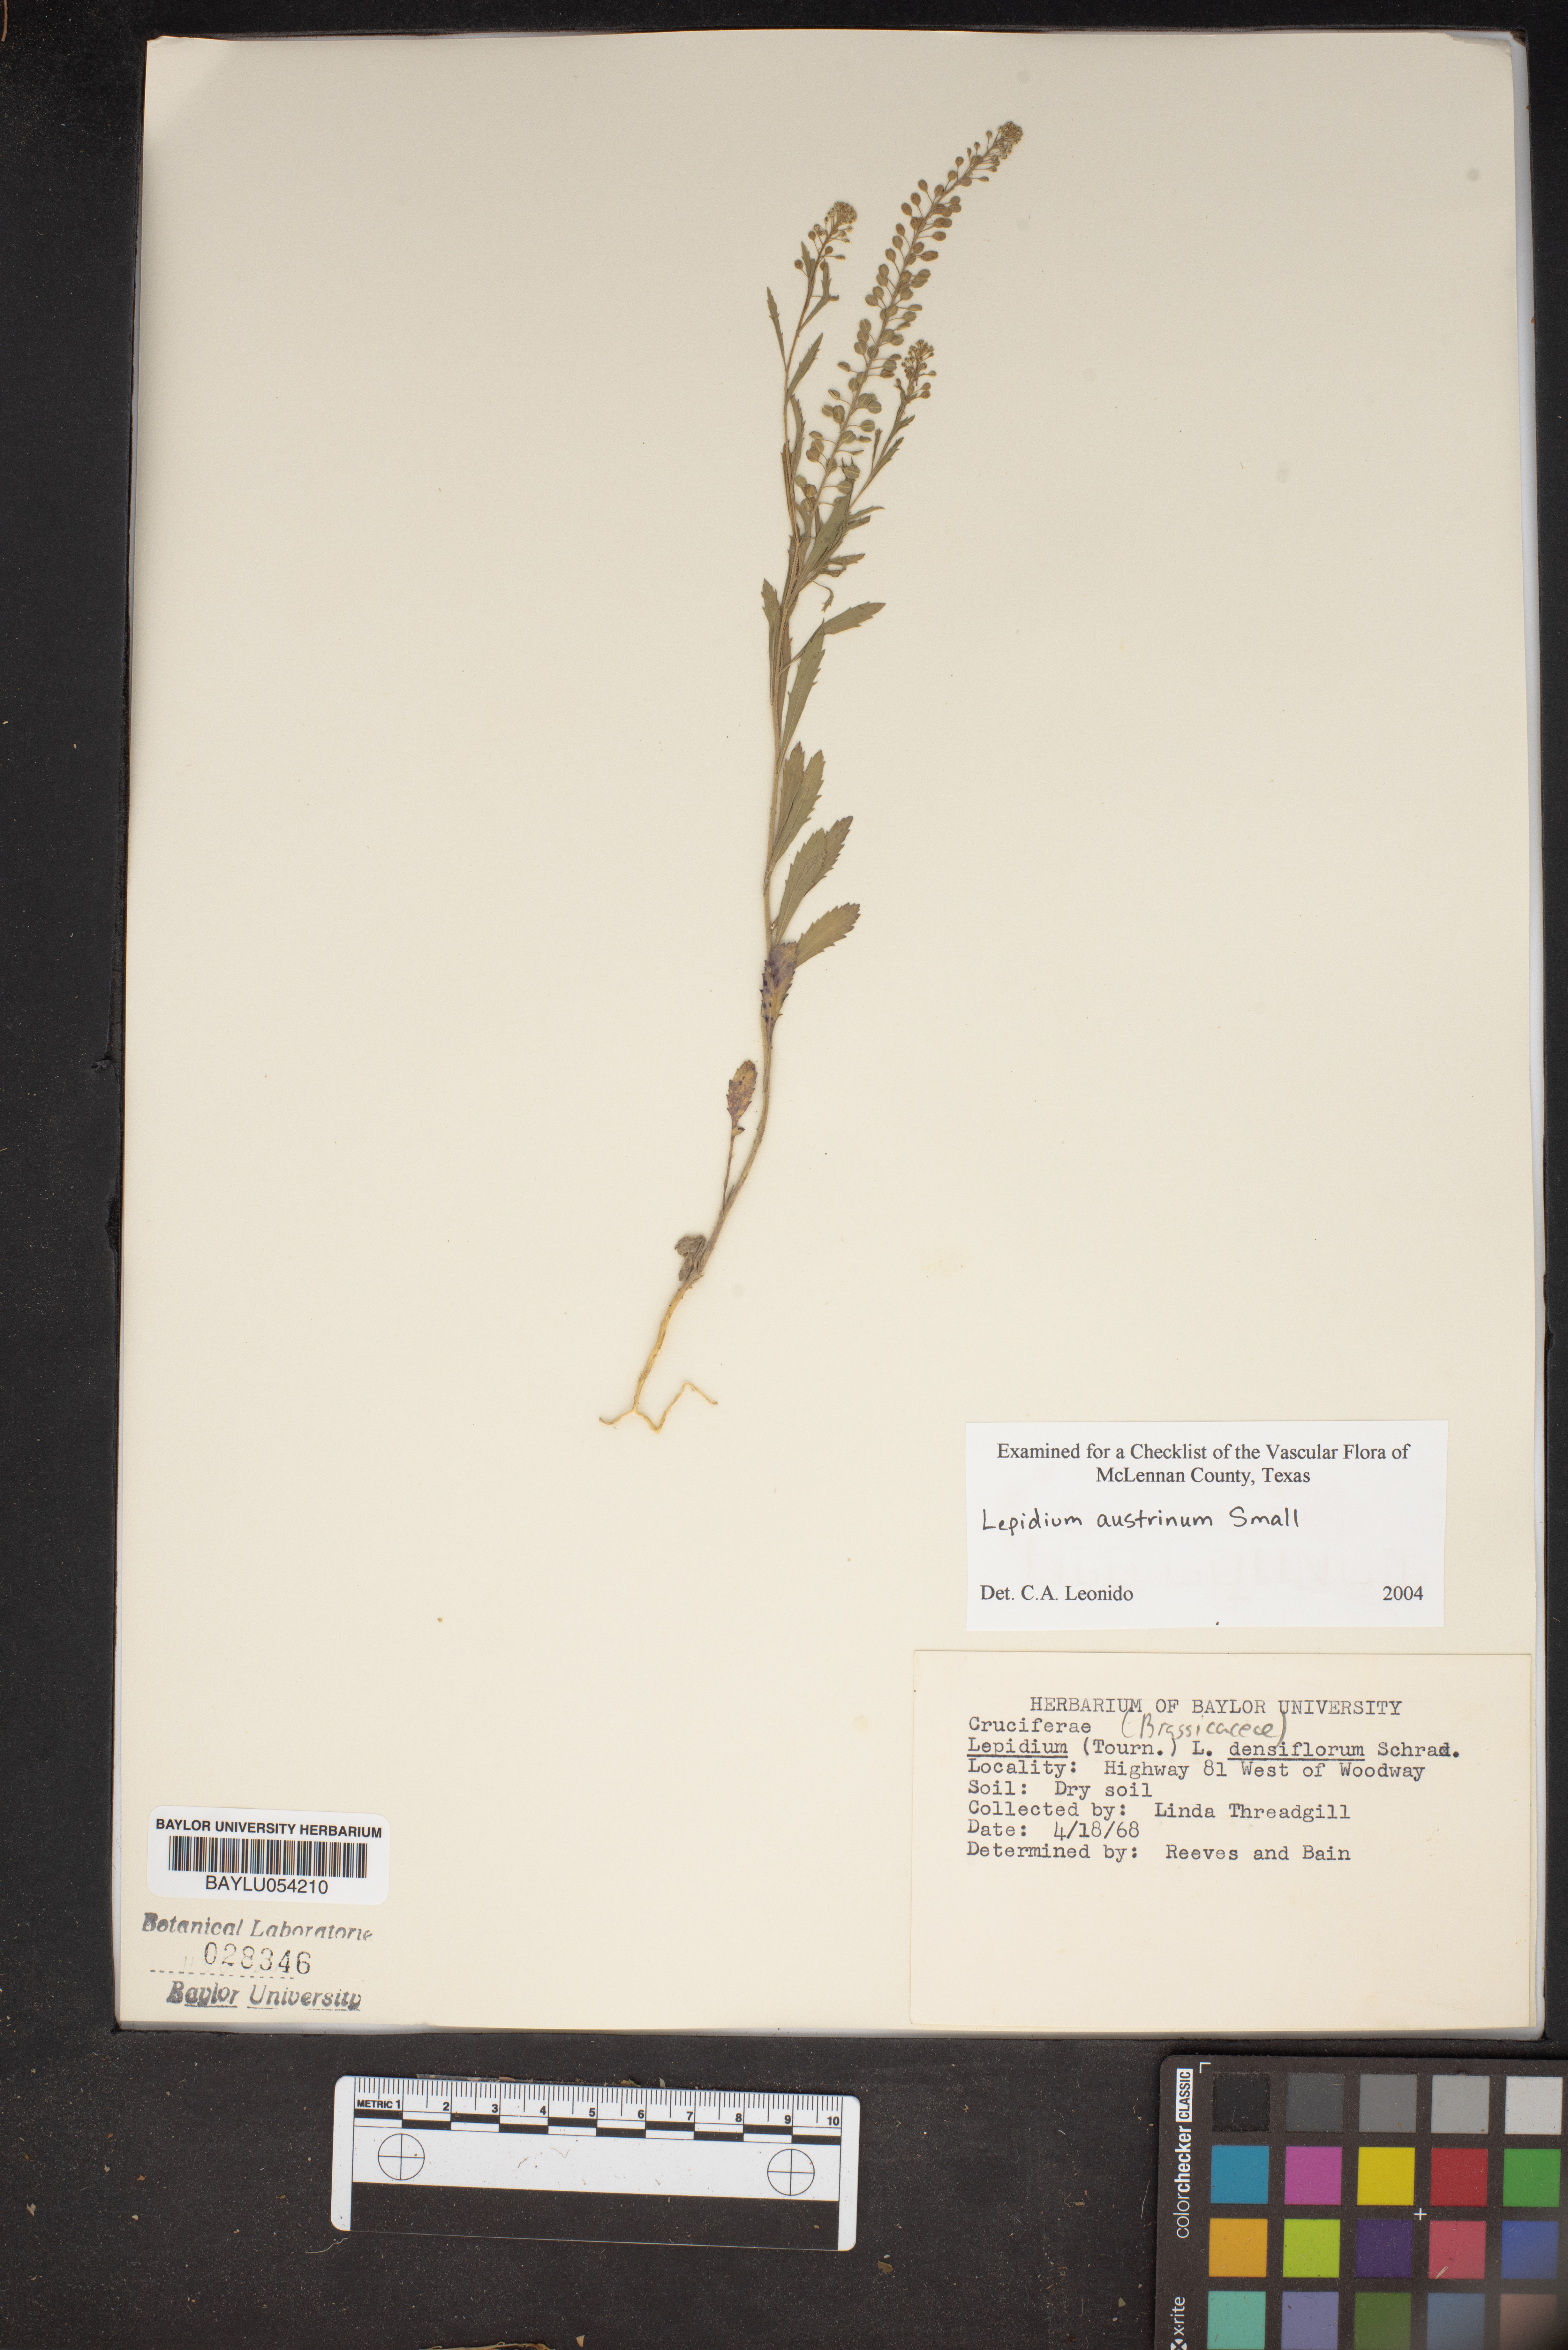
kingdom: Plantae
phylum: Tracheophyta
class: Magnoliopsida
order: Brassicales
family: Brassicaceae
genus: Lepidium
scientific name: Lepidium austrinum
